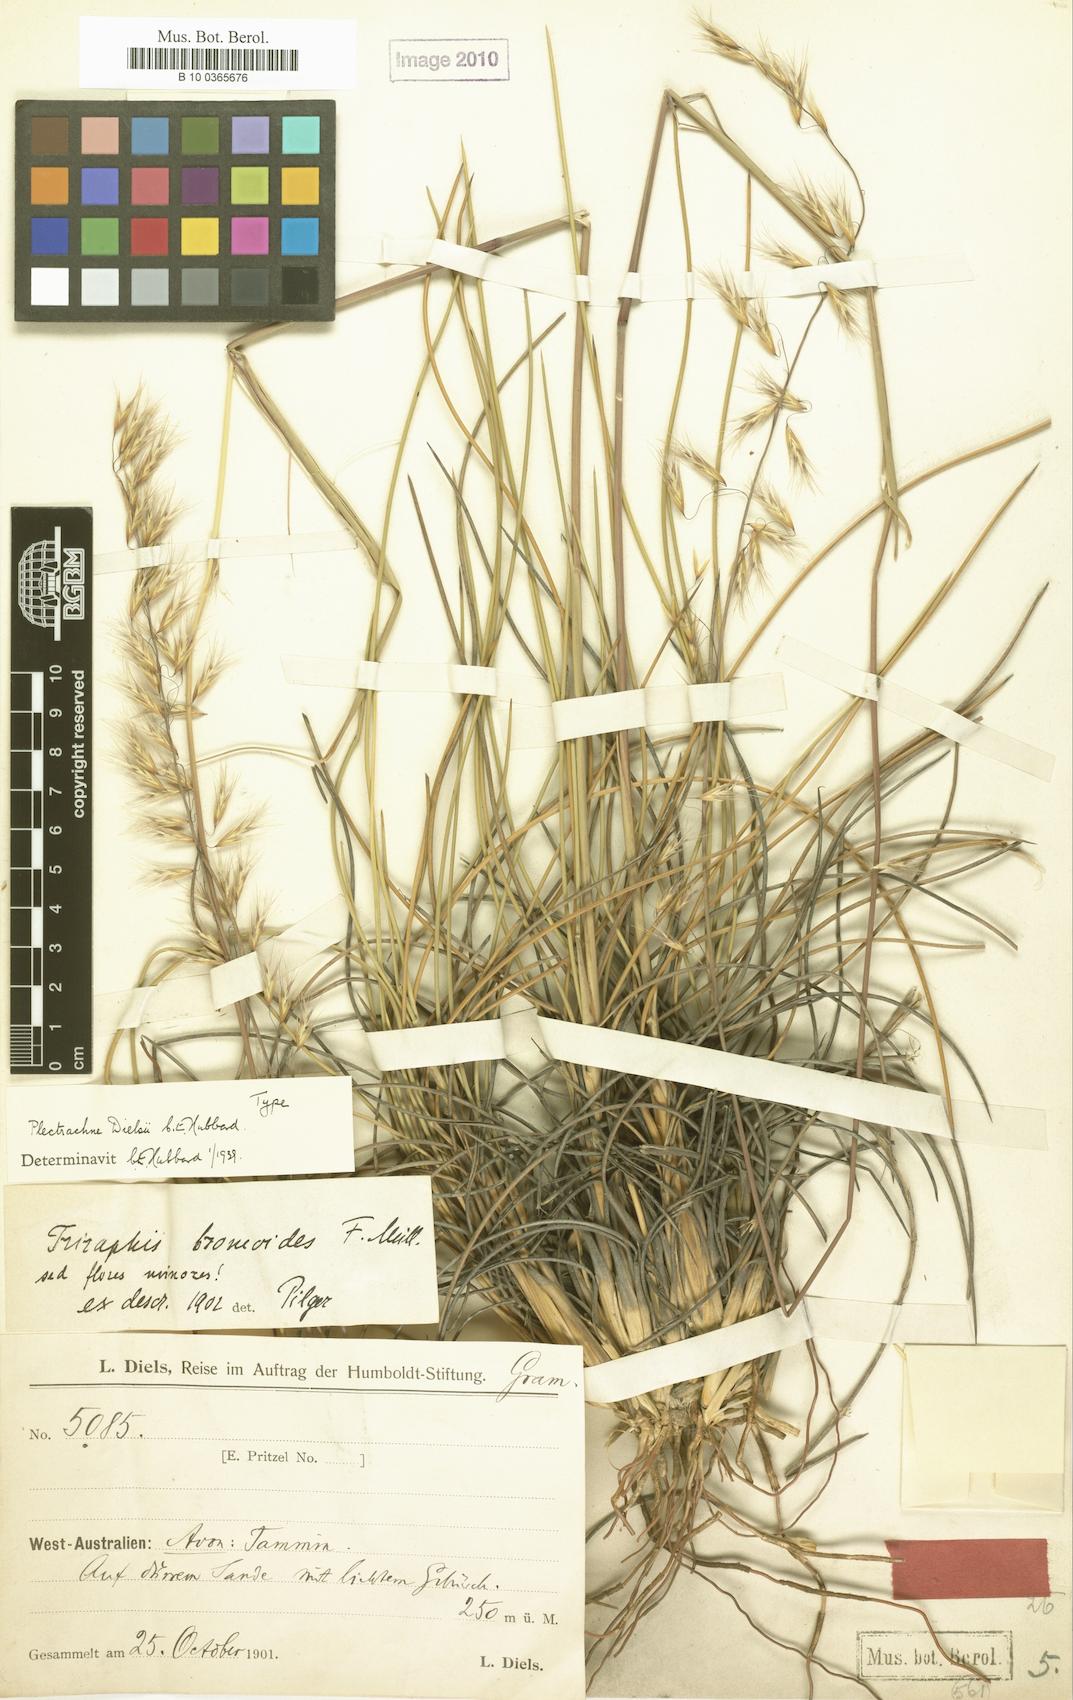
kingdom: Plantae
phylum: Tracheophyta
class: Liliopsida
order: Poales
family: Poaceae
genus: Triodia
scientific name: Triodia dielsii
